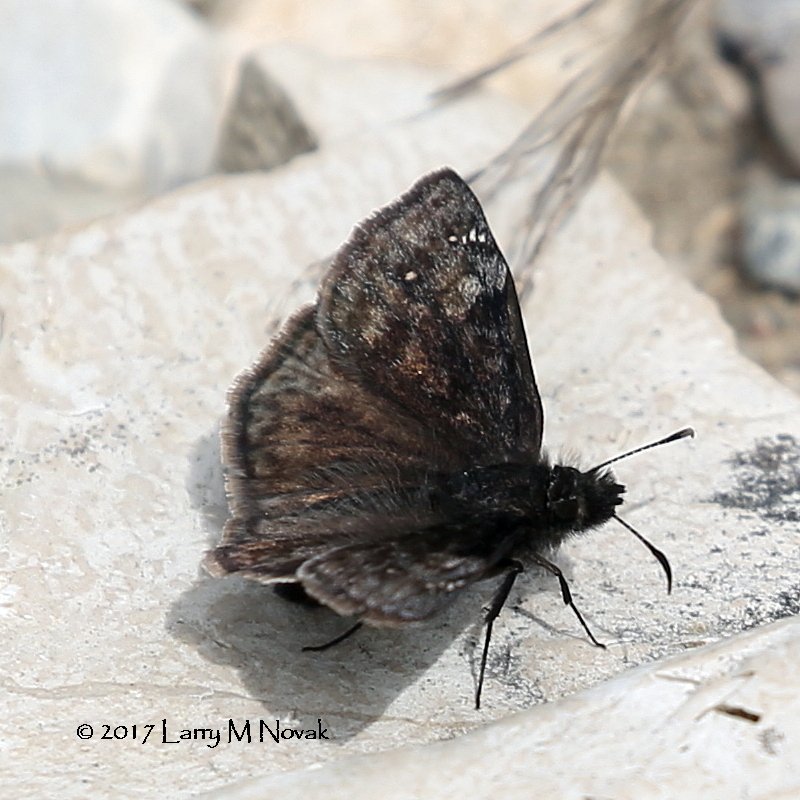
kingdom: Animalia
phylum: Arthropoda
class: Insecta
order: Lepidoptera
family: Hesperiidae
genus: Gesta
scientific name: Gesta
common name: Columbine Duskywing
